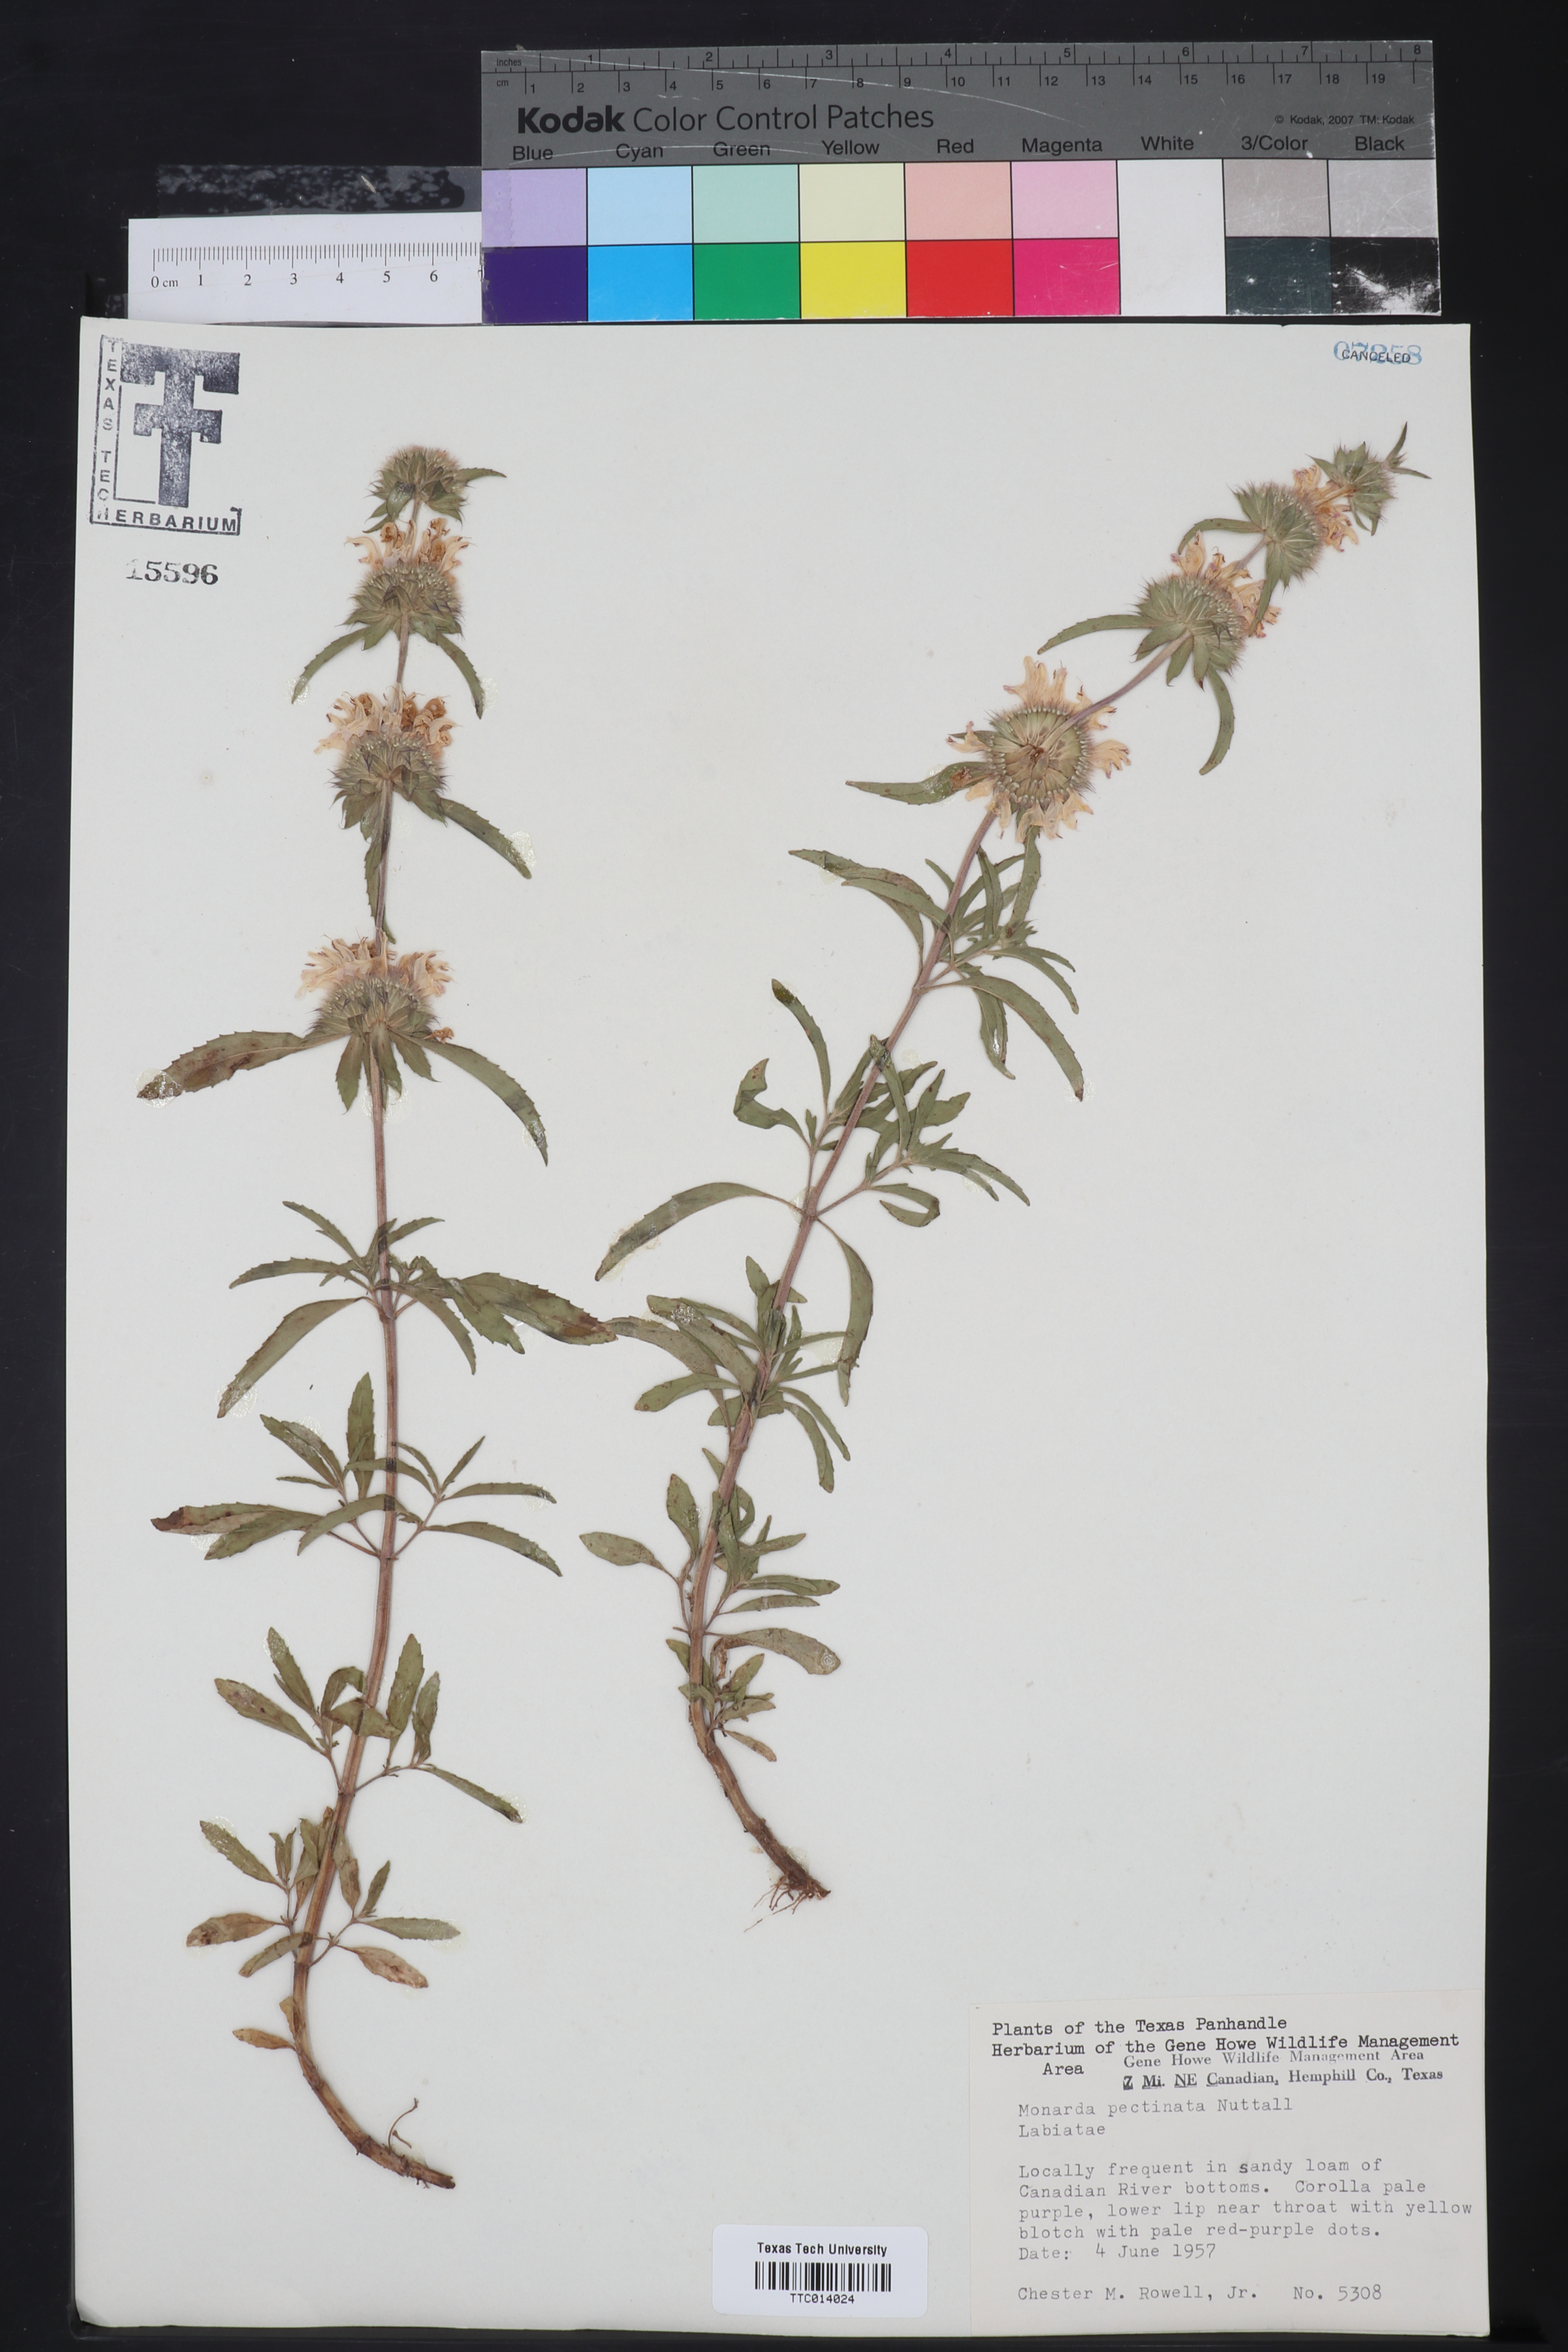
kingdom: Plantae
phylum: Tracheophyta
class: Magnoliopsida
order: Lamiales
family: Lamiaceae
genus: Monarda
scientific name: Monarda pectinata
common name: Plains beebalm
